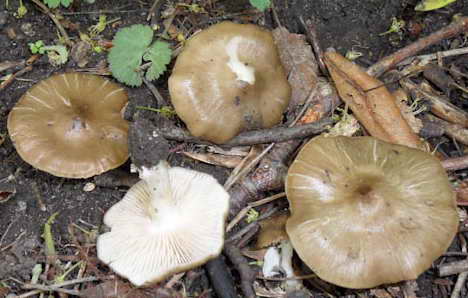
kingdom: Fungi
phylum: Basidiomycota
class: Agaricomycetes
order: Agaricales
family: Entolomataceae
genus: Entoloma
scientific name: Entoloma clypeatum
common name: flammet rødblad
